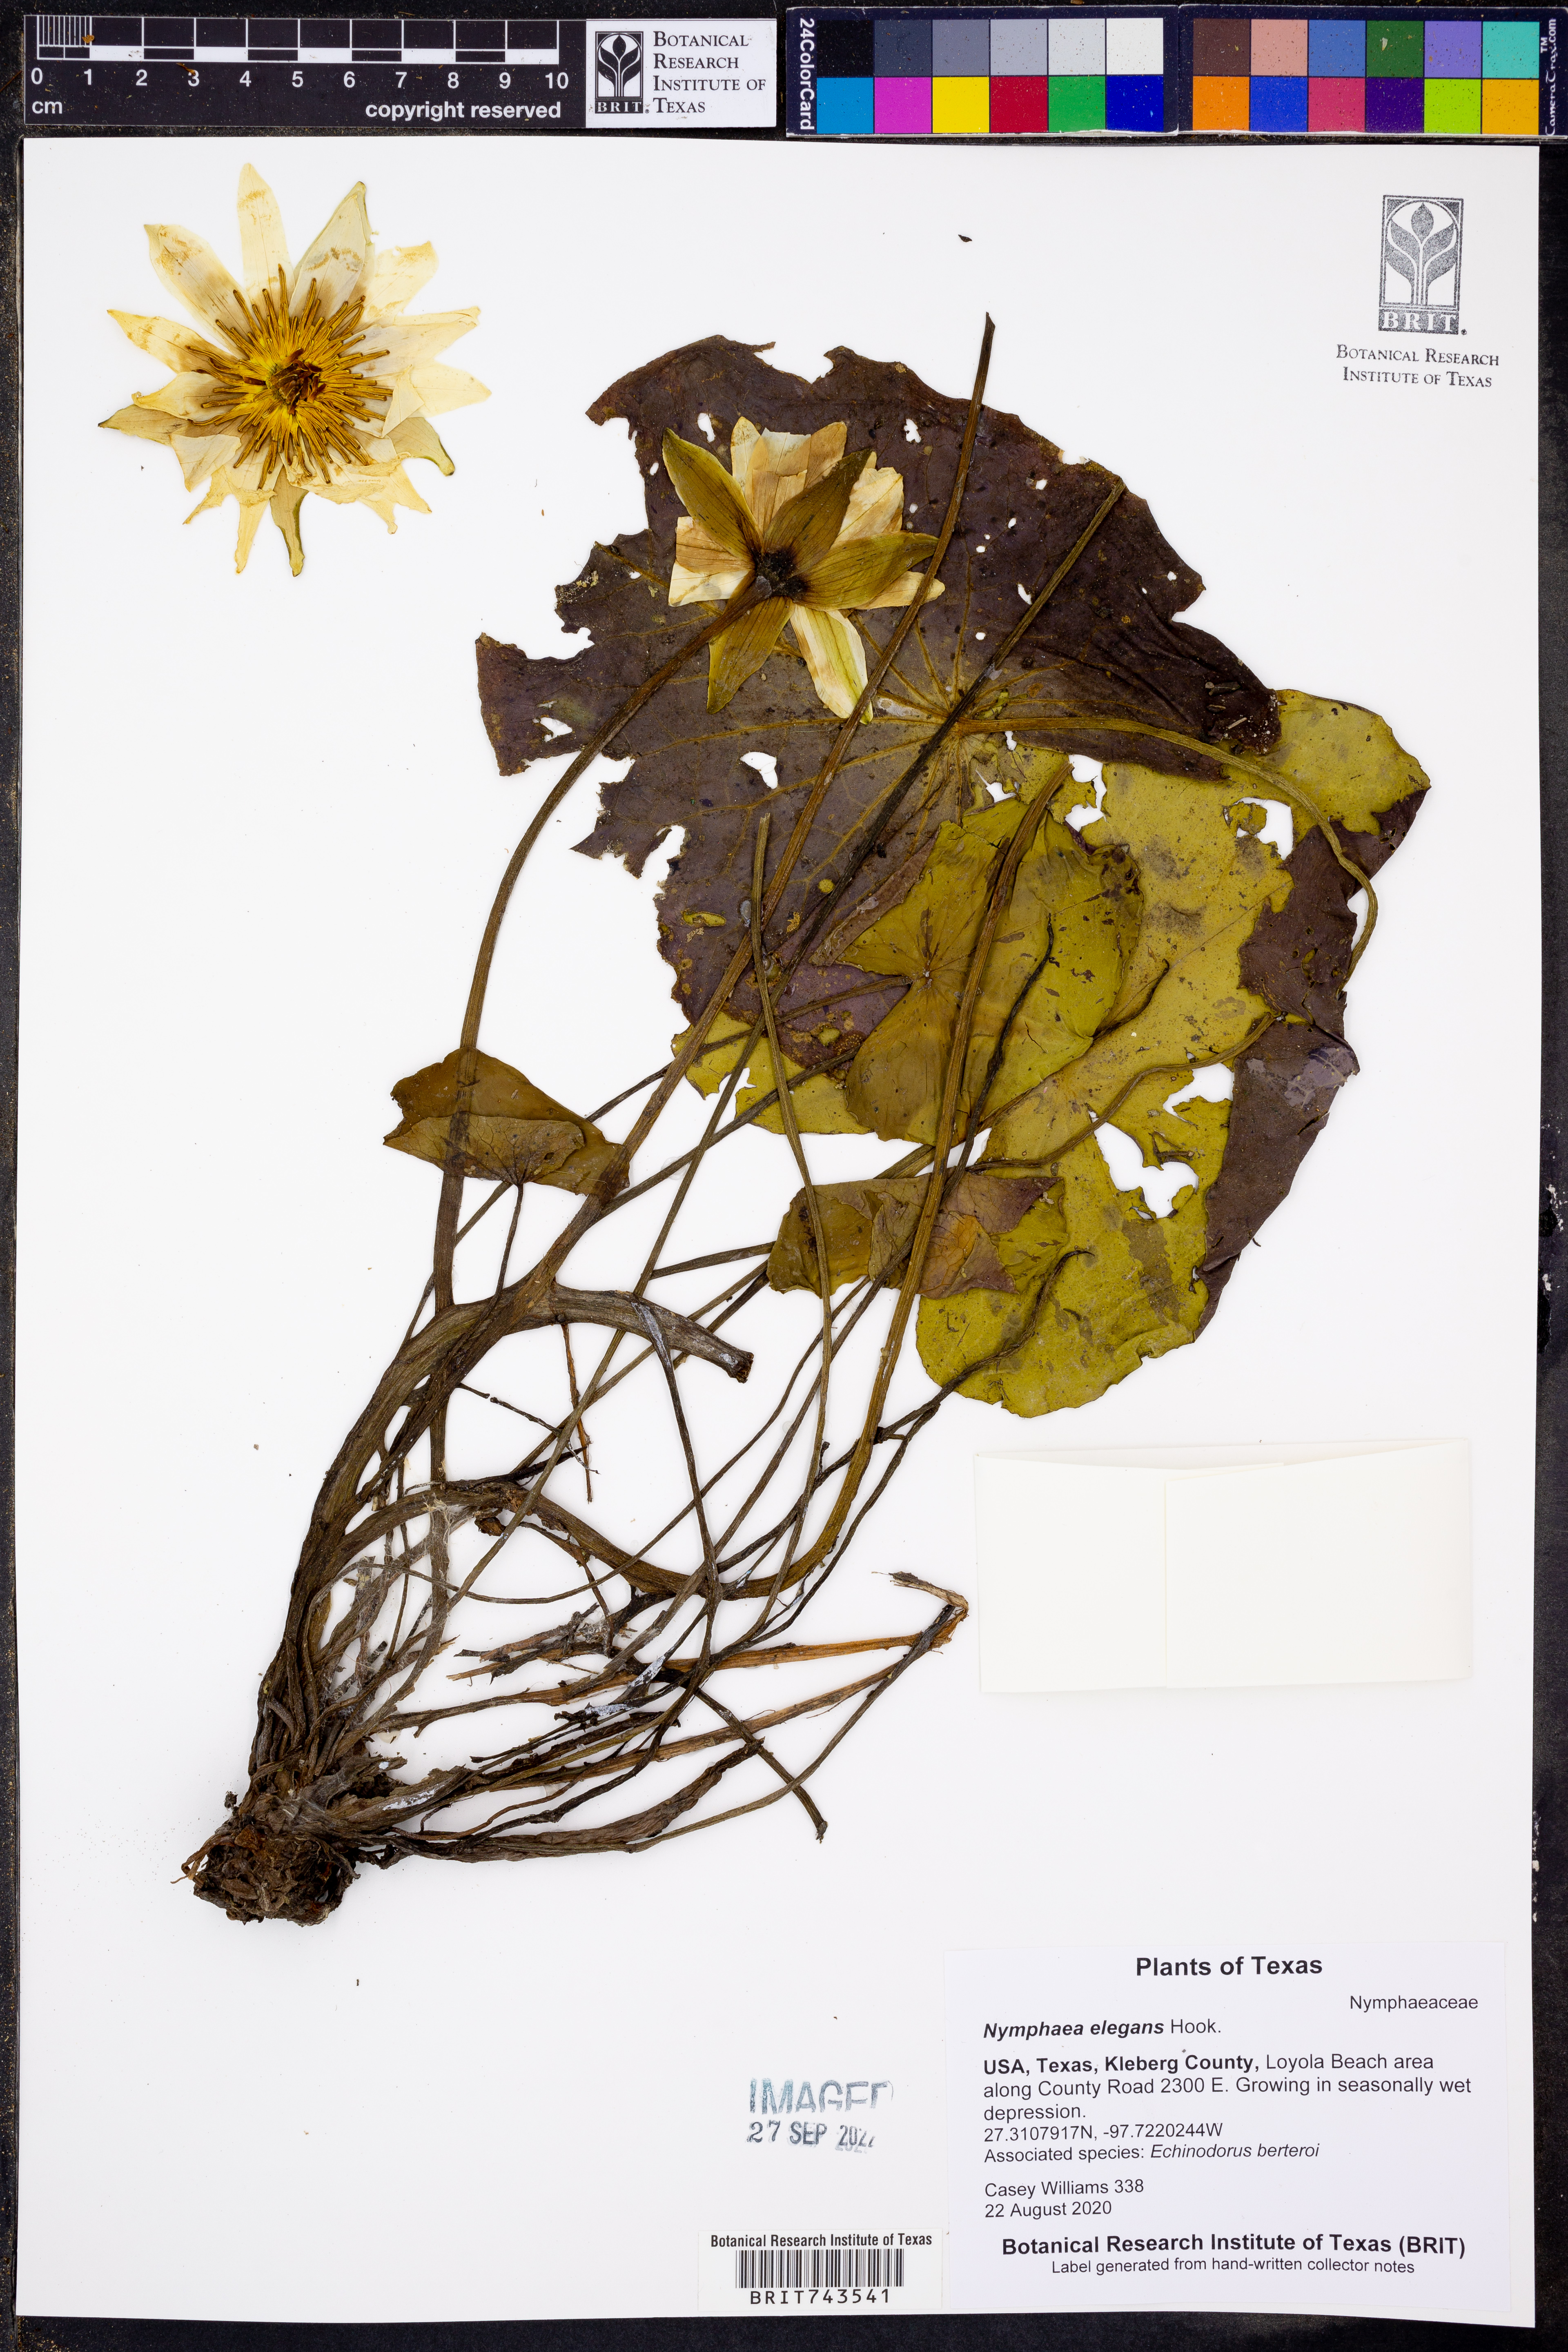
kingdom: Plantae
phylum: Tracheophyta
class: Magnoliopsida
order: Nymphaeales
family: Nymphaeaceae
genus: Nymphaea
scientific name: Nymphaea elegans
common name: Blue water-lily
